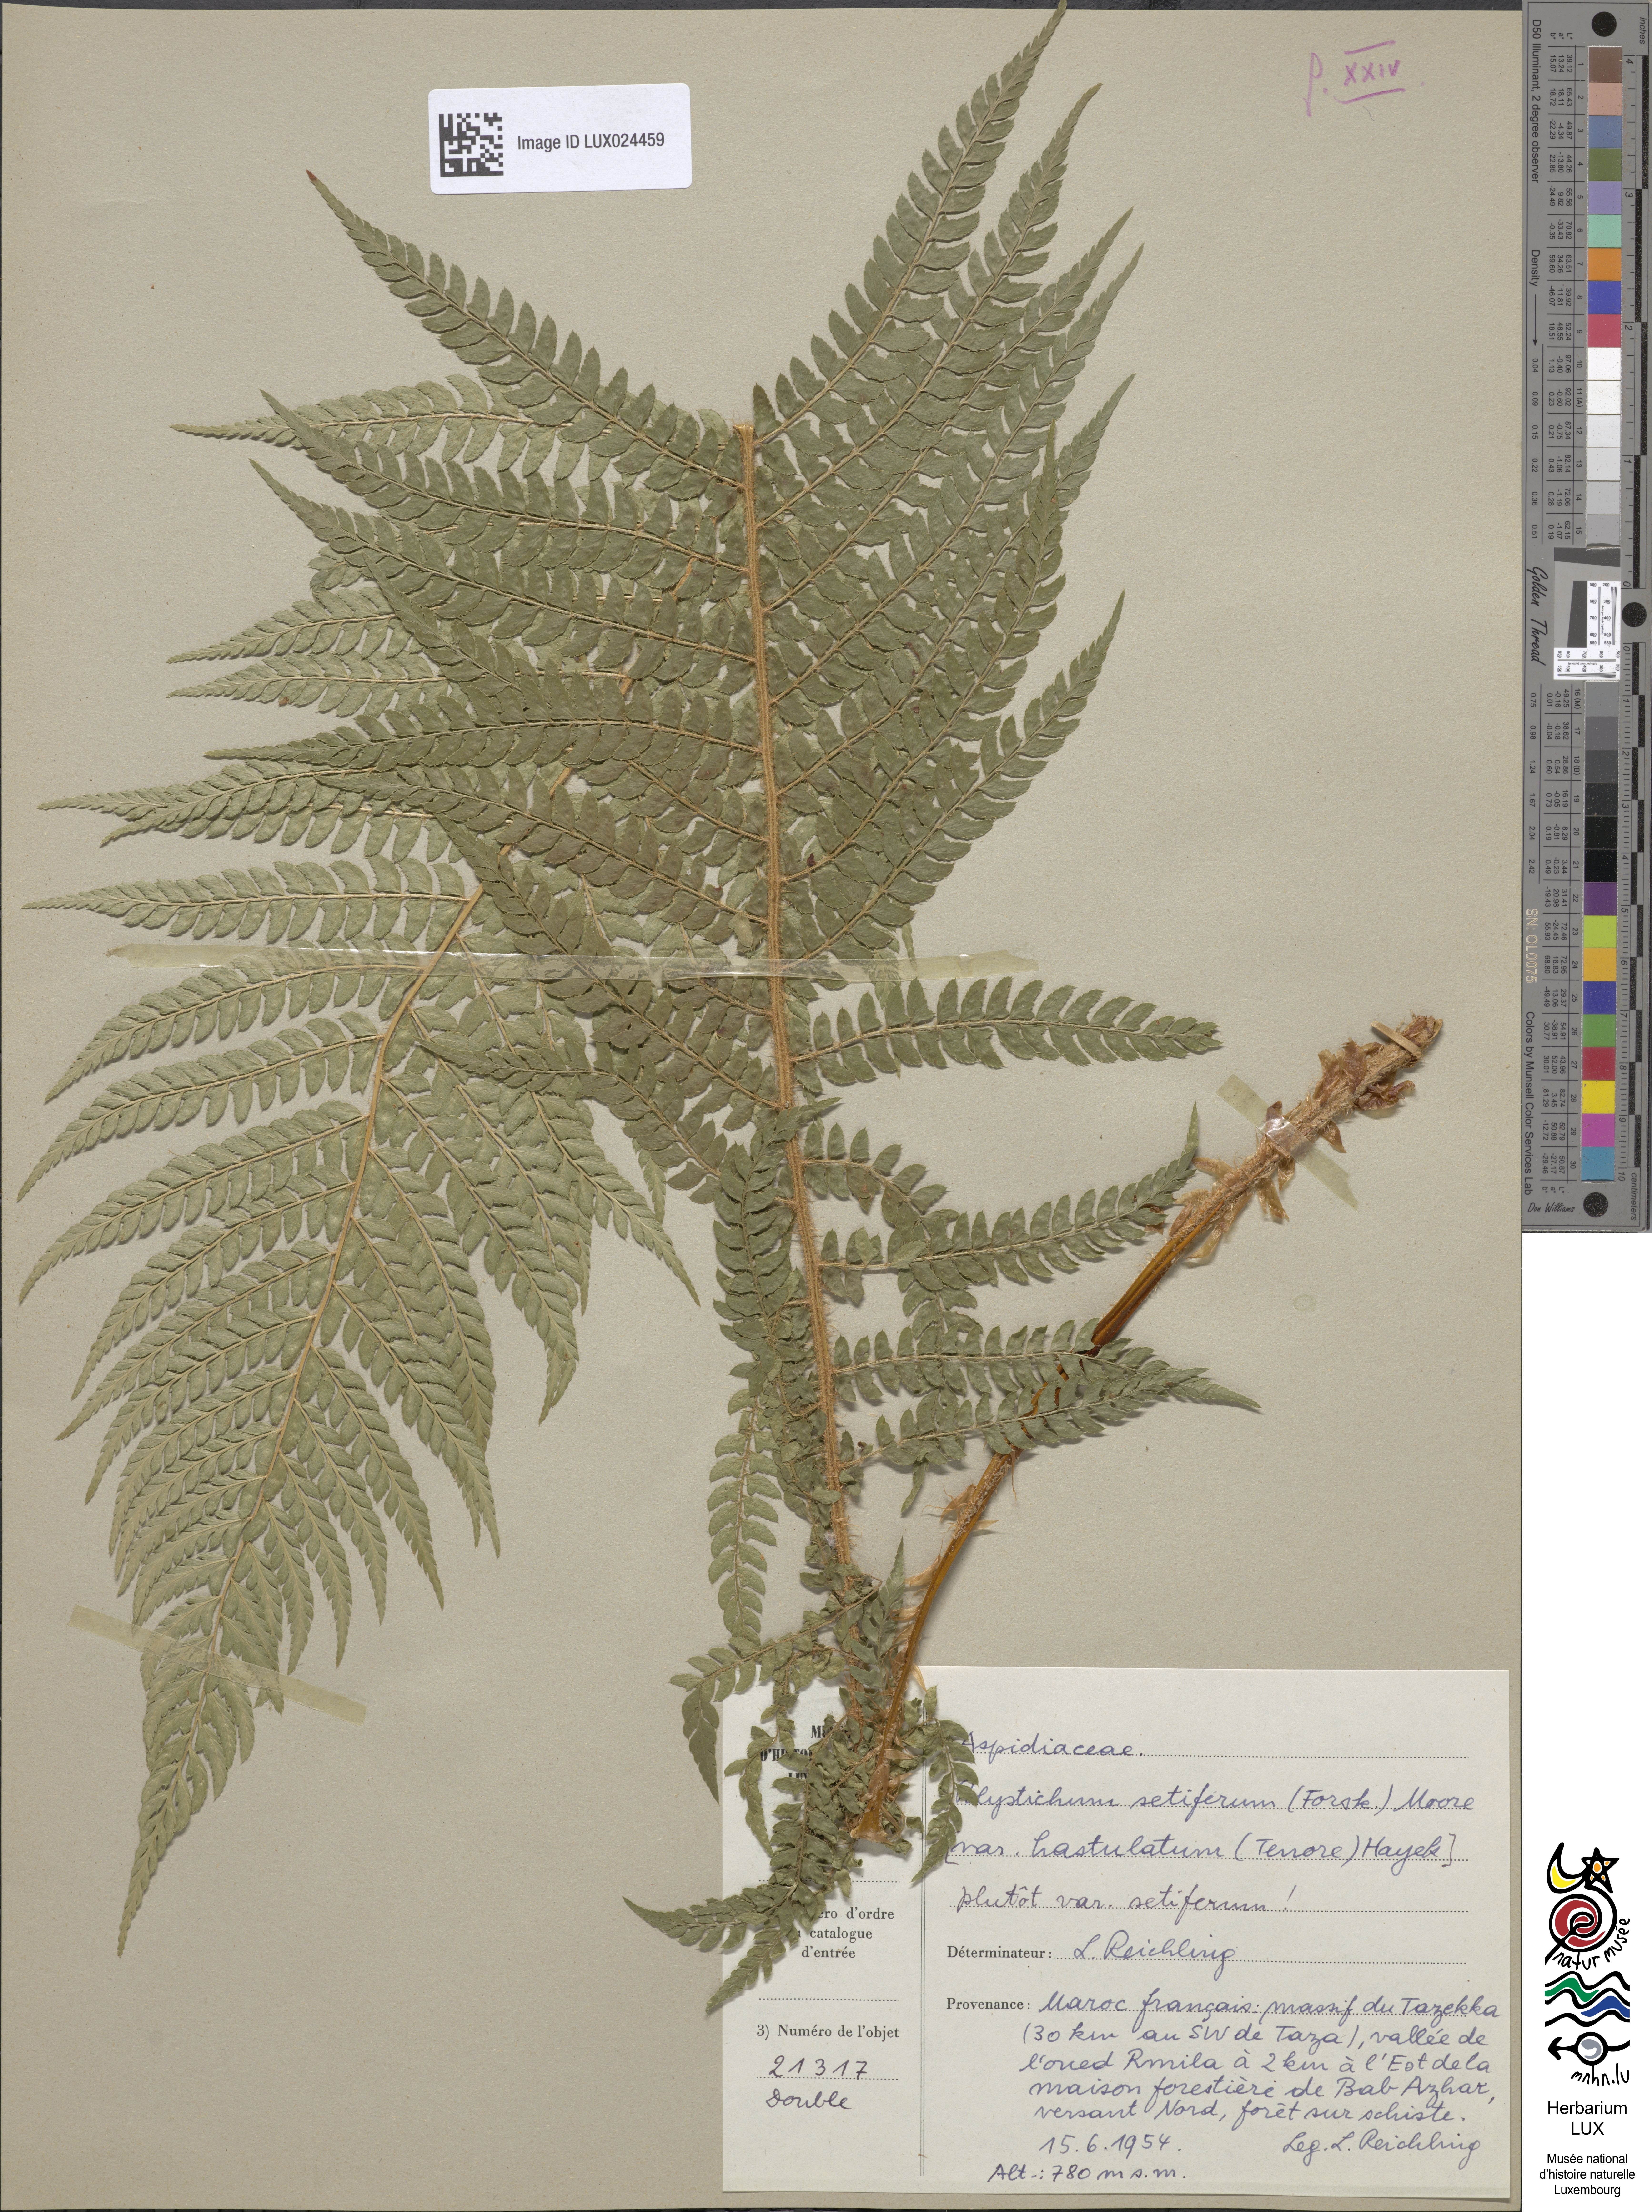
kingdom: Plantae
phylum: Tracheophyta
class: Polypodiopsida
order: Polypodiales
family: Dryopteridaceae
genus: Polystichum
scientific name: Polystichum setiferum
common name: Soft shield-fern
